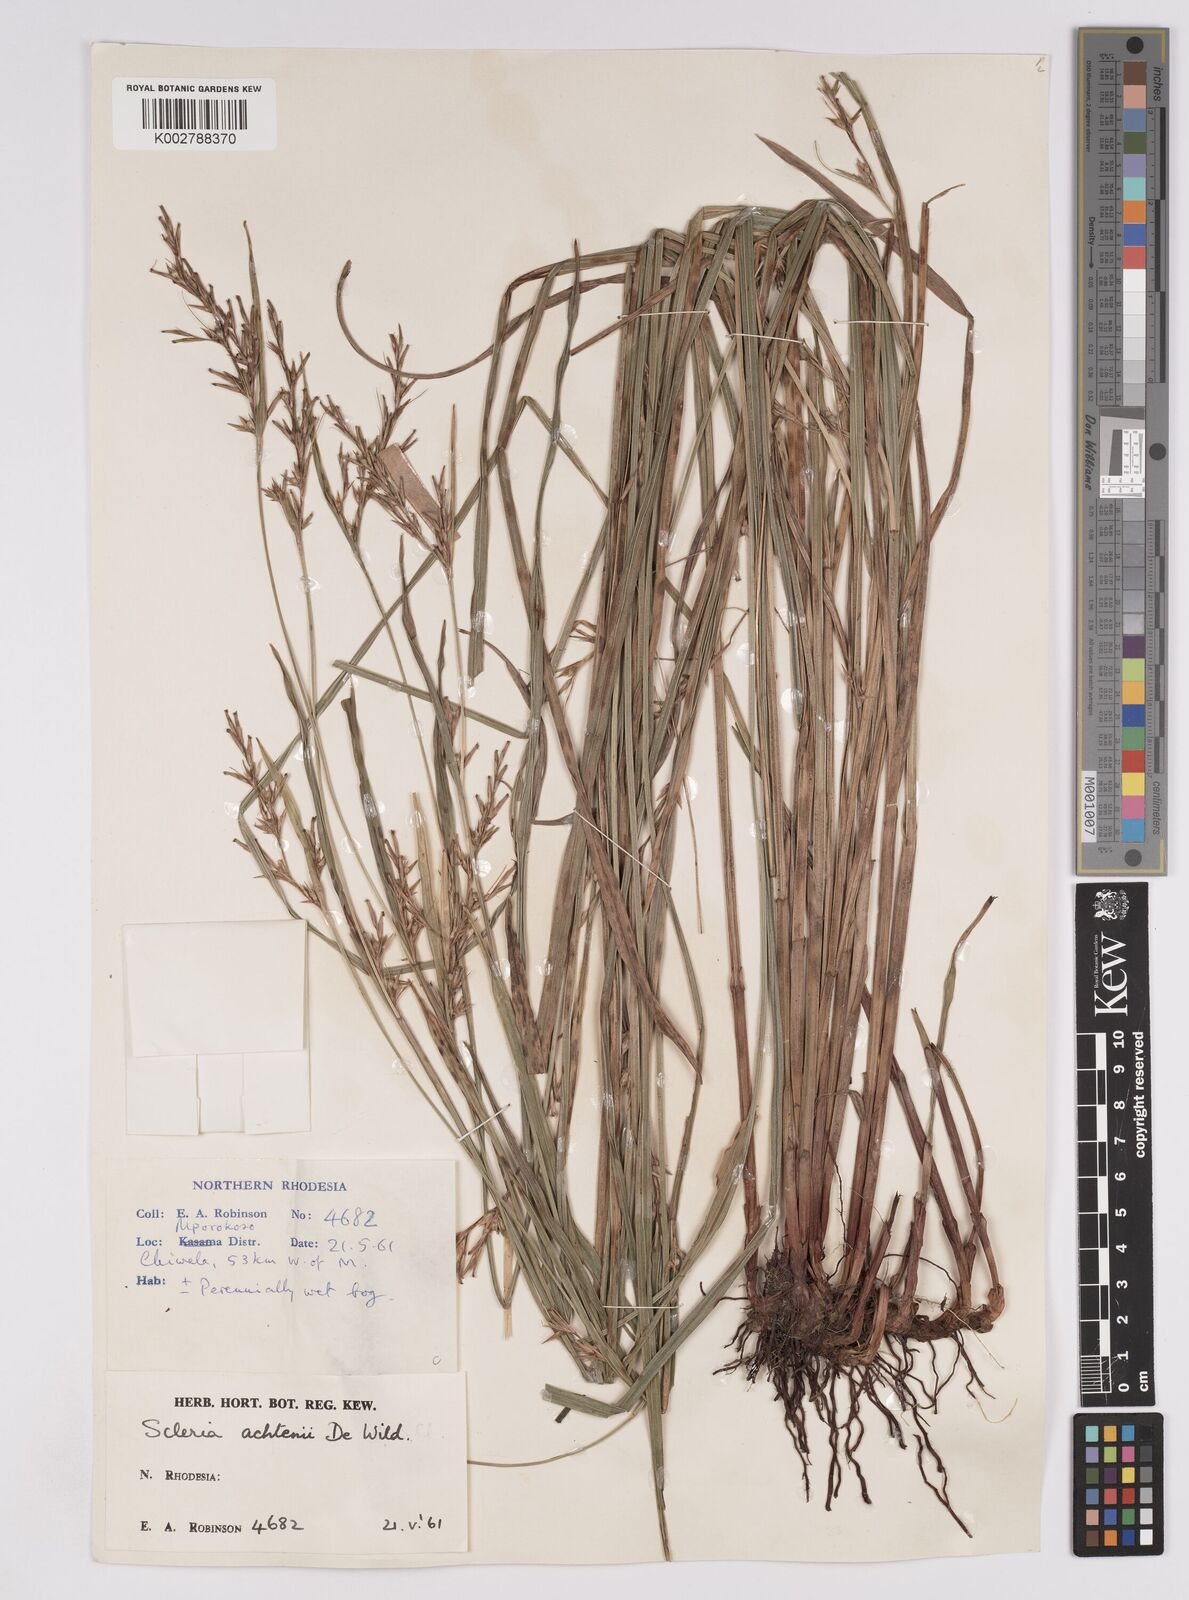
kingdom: Plantae
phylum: Tracheophyta
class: Liliopsida
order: Poales
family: Cyperaceae
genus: Scleria
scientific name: Scleria achtenii
